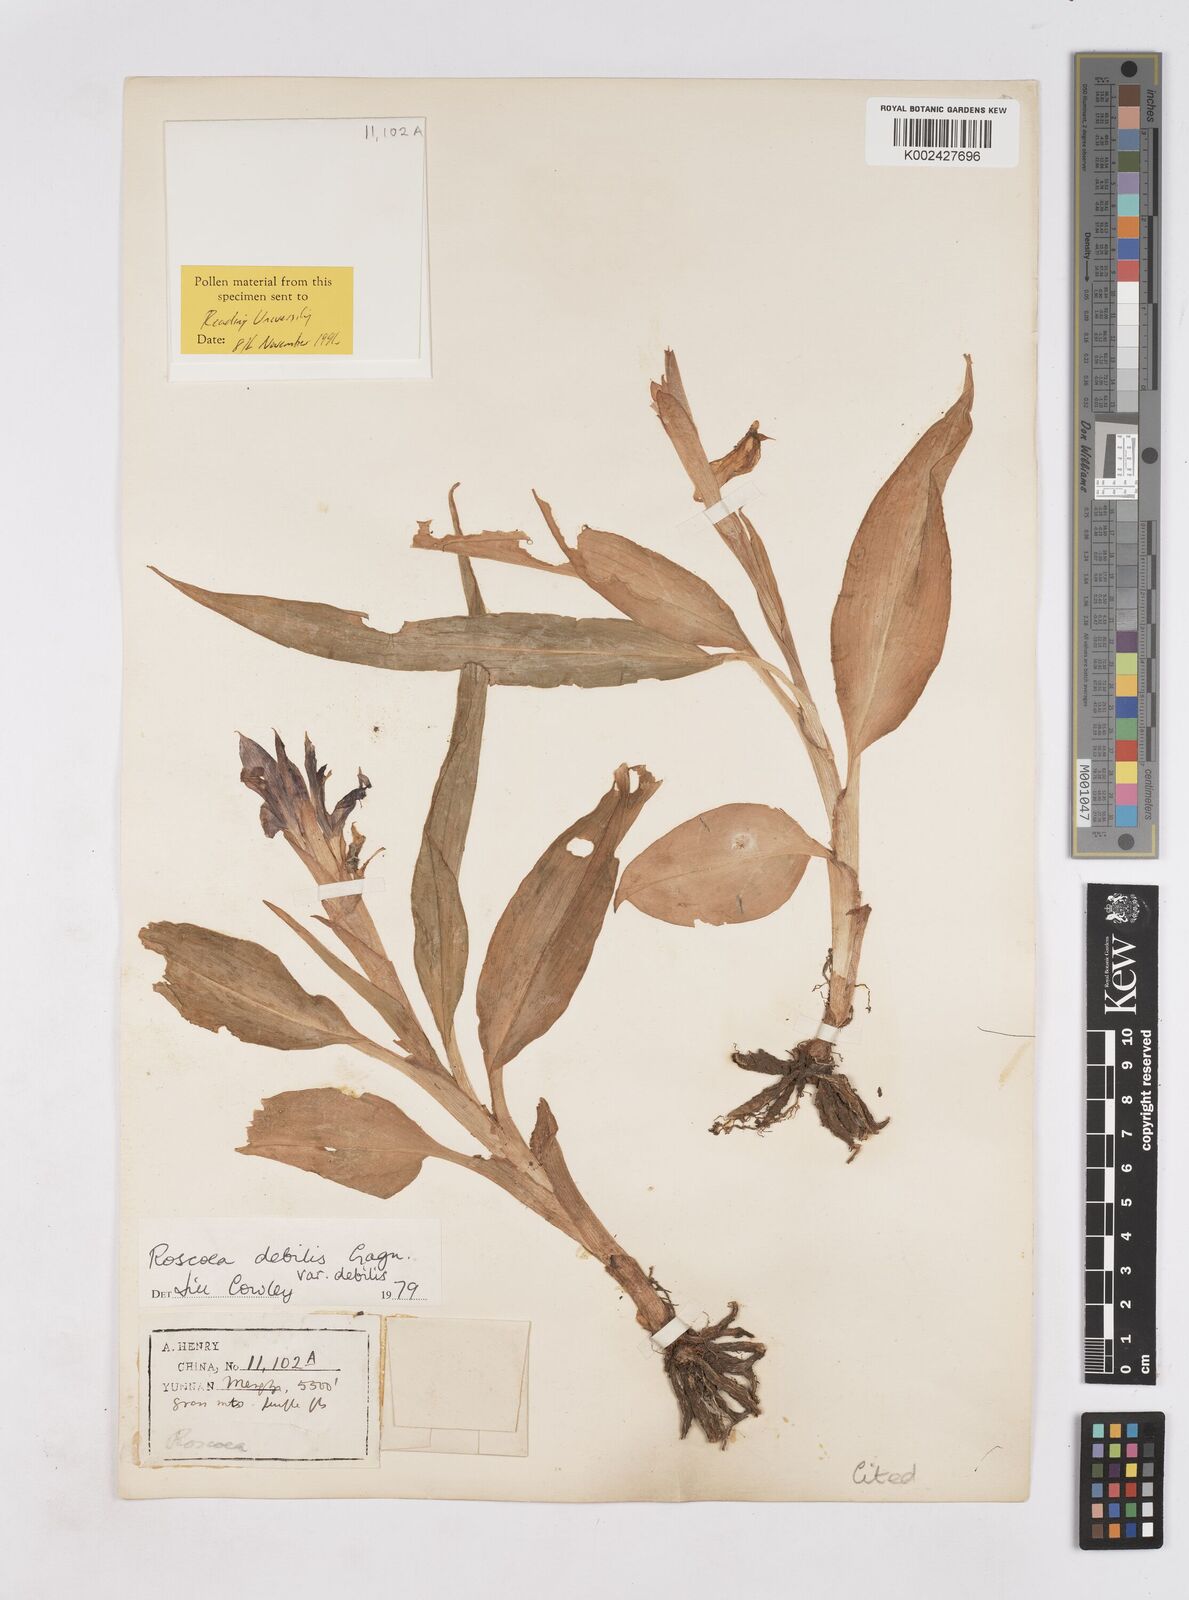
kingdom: Plantae
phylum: Tracheophyta
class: Liliopsida
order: Zingiberales
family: Zingiberaceae
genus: Roscoea
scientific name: Roscoea debilis
